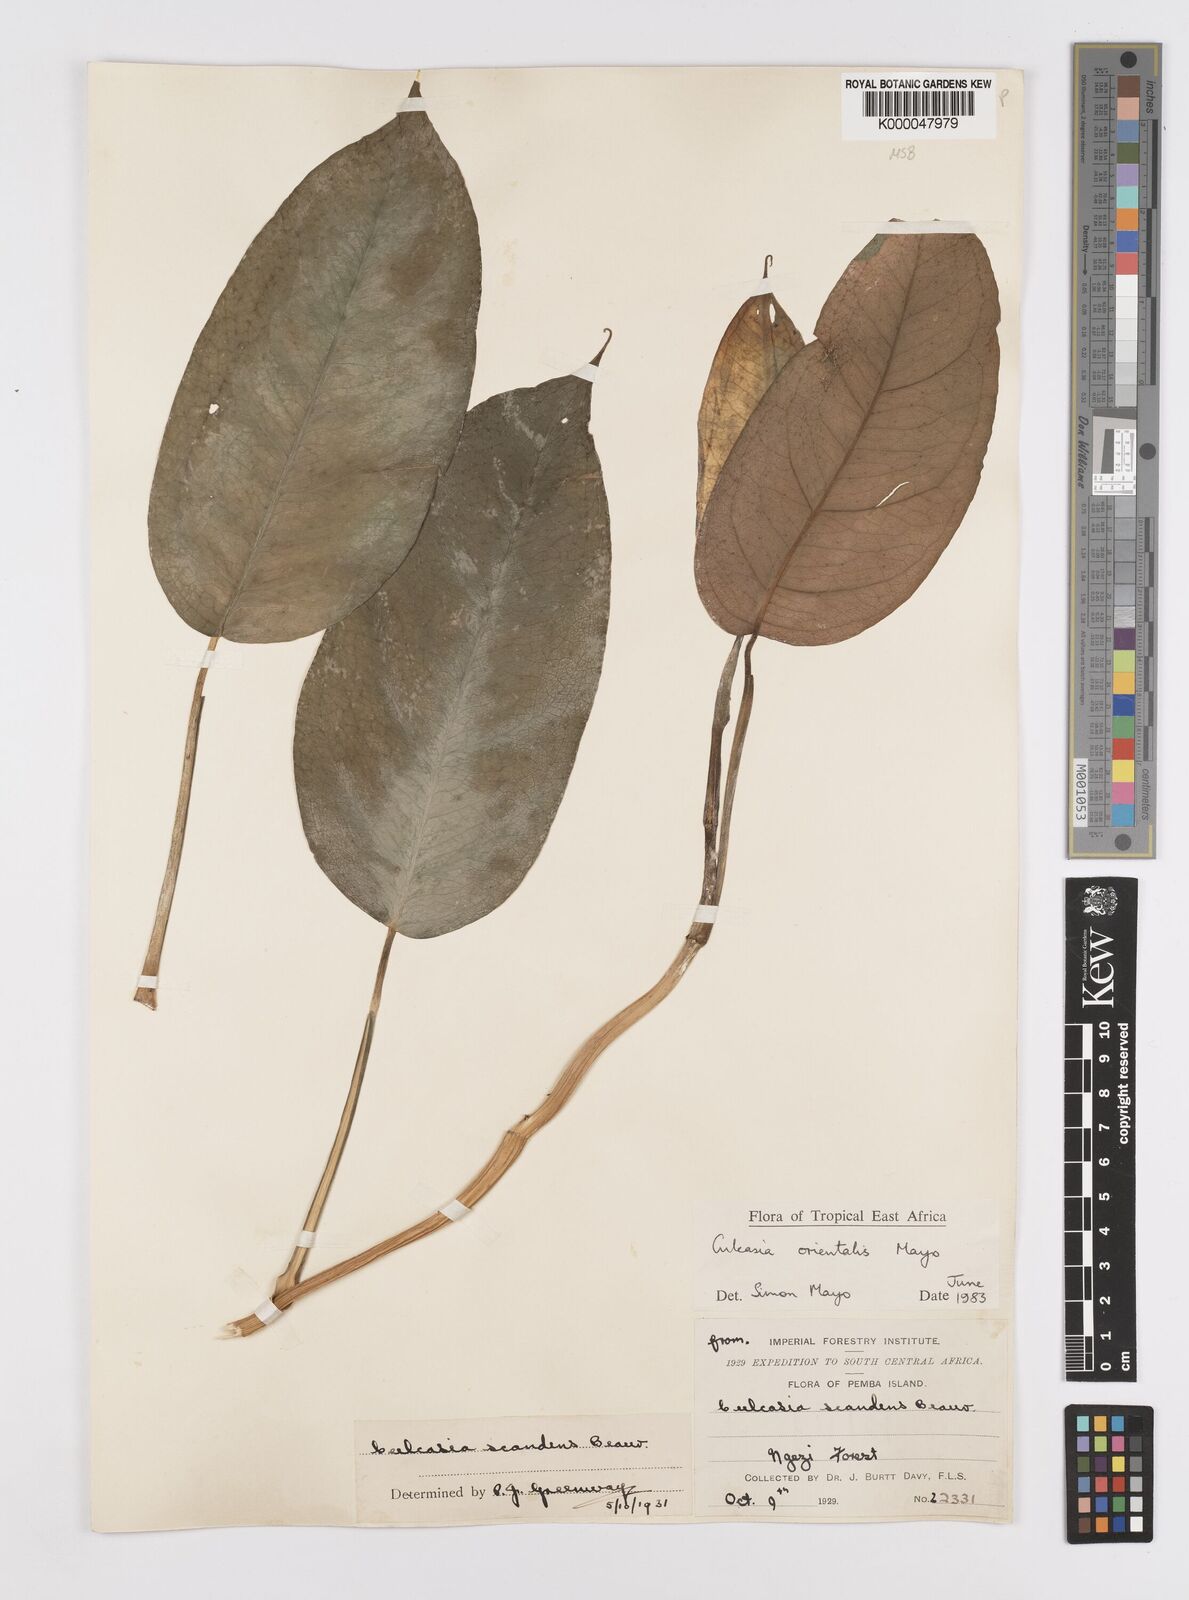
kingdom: Plantae
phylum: Tracheophyta
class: Liliopsida
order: Alismatales
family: Araceae
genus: Culcasia
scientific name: Culcasia orientalis
